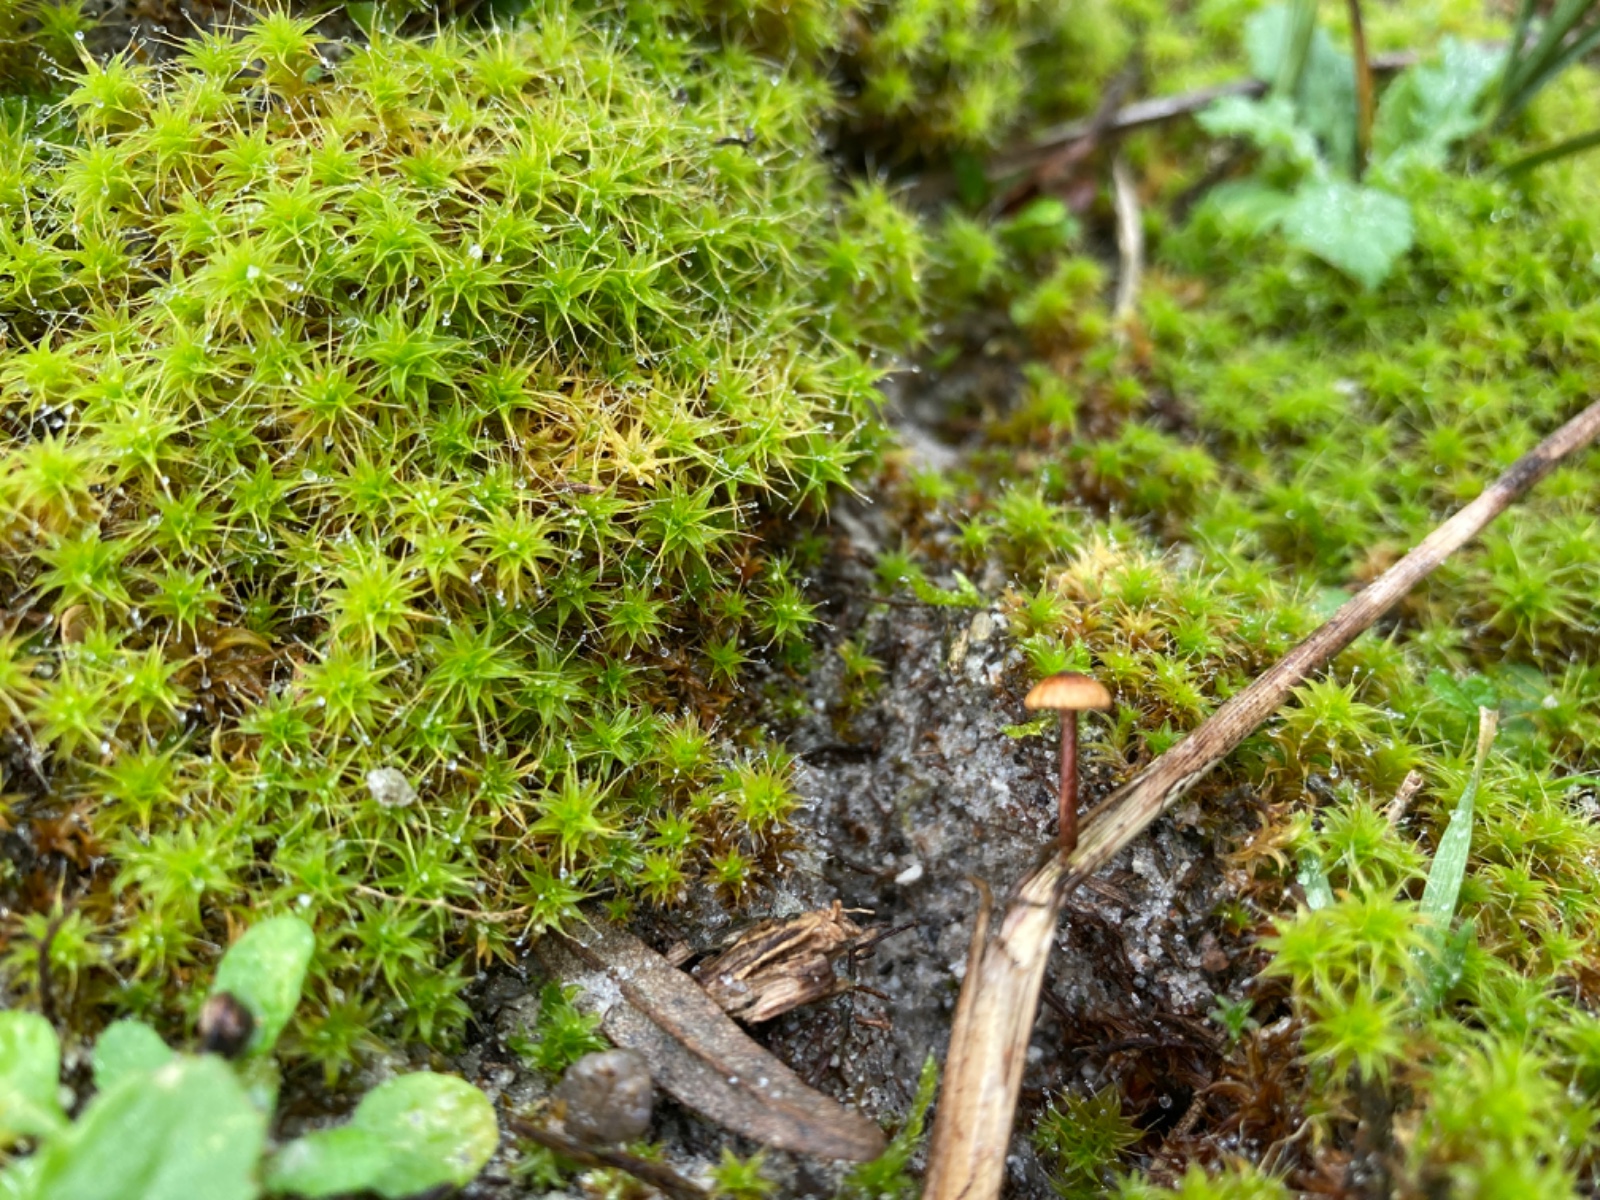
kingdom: Fungi
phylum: Basidiomycota
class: Agaricomycetes
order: Agaricales
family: Marasmiaceae
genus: Crinipellis
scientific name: Crinipellis scabella
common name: børstefod
